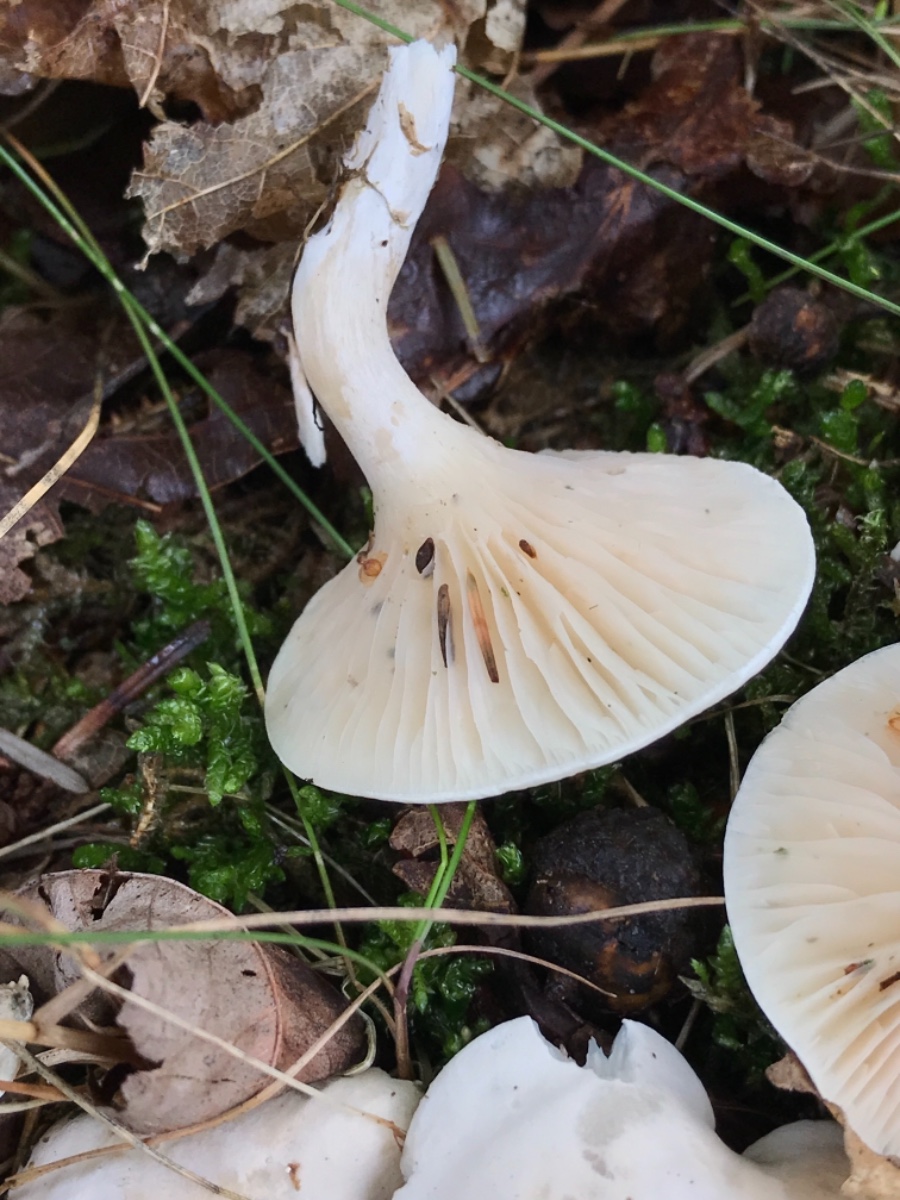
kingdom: Fungi
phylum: Basidiomycota
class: Agaricomycetes
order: Agaricales
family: Entolomataceae
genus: Clitopilus
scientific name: Clitopilus prunulus
